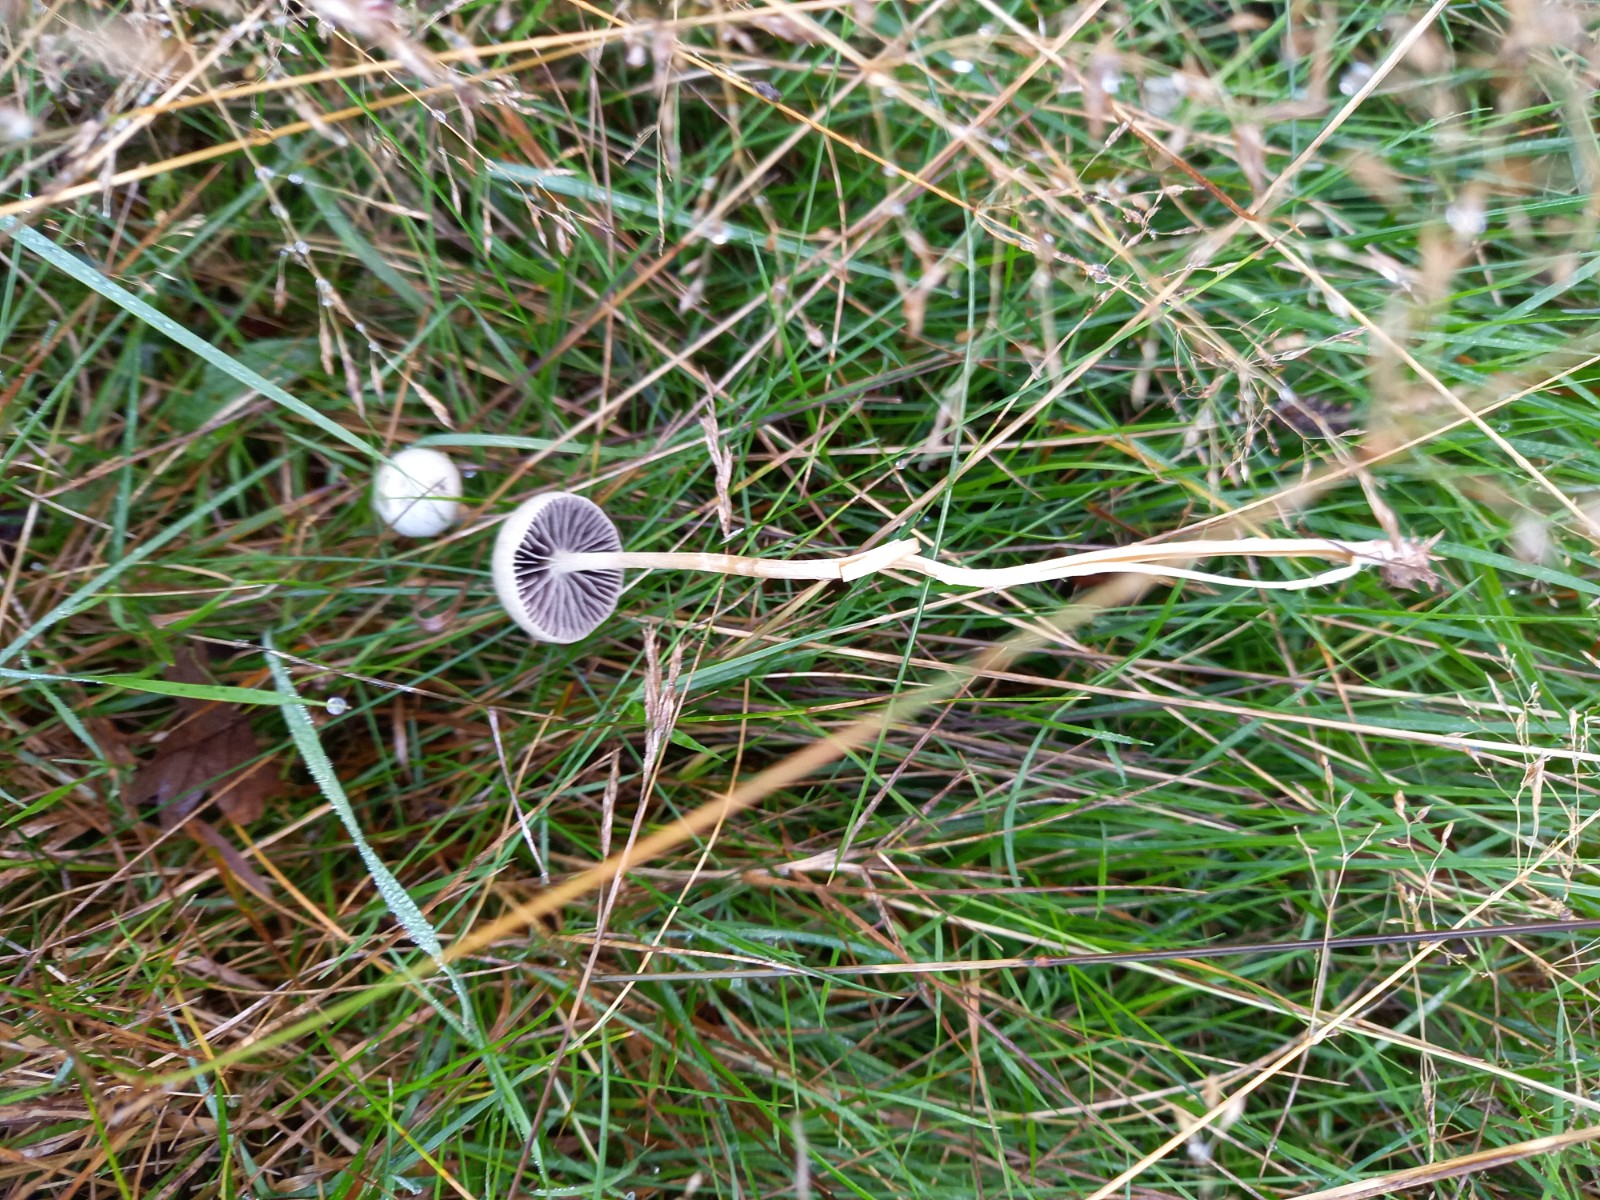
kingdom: Fungi
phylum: Basidiomycota
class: Agaricomycetes
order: Agaricales
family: Strophariaceae
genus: Protostropharia
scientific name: Protostropharia semiglobata
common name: halvkugleformet bredblad
